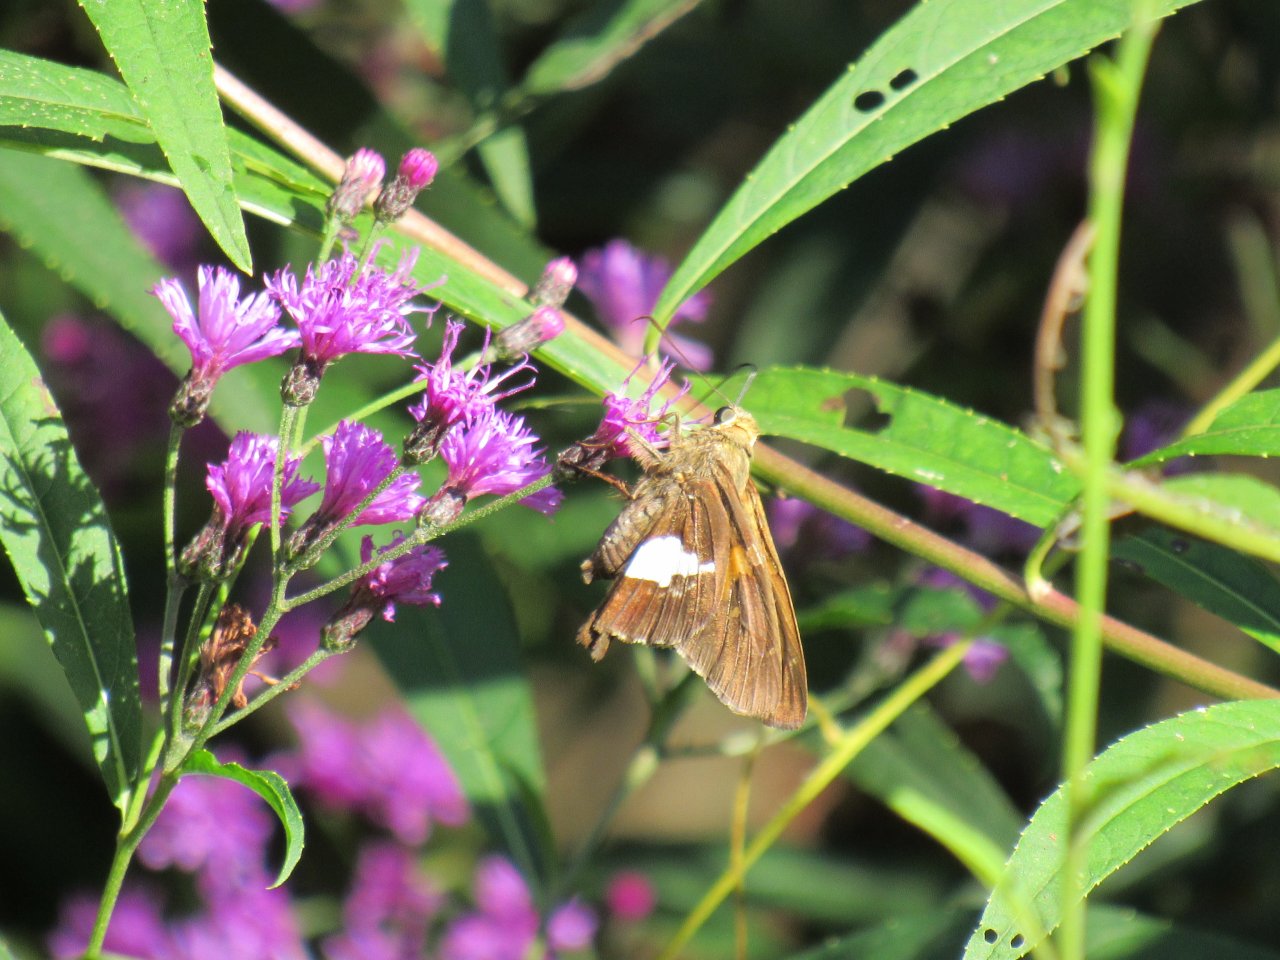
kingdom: Animalia
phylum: Arthropoda
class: Insecta
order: Lepidoptera
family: Hesperiidae
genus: Epargyreus
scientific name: Epargyreus clarus
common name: Silver-spotted Skipper
